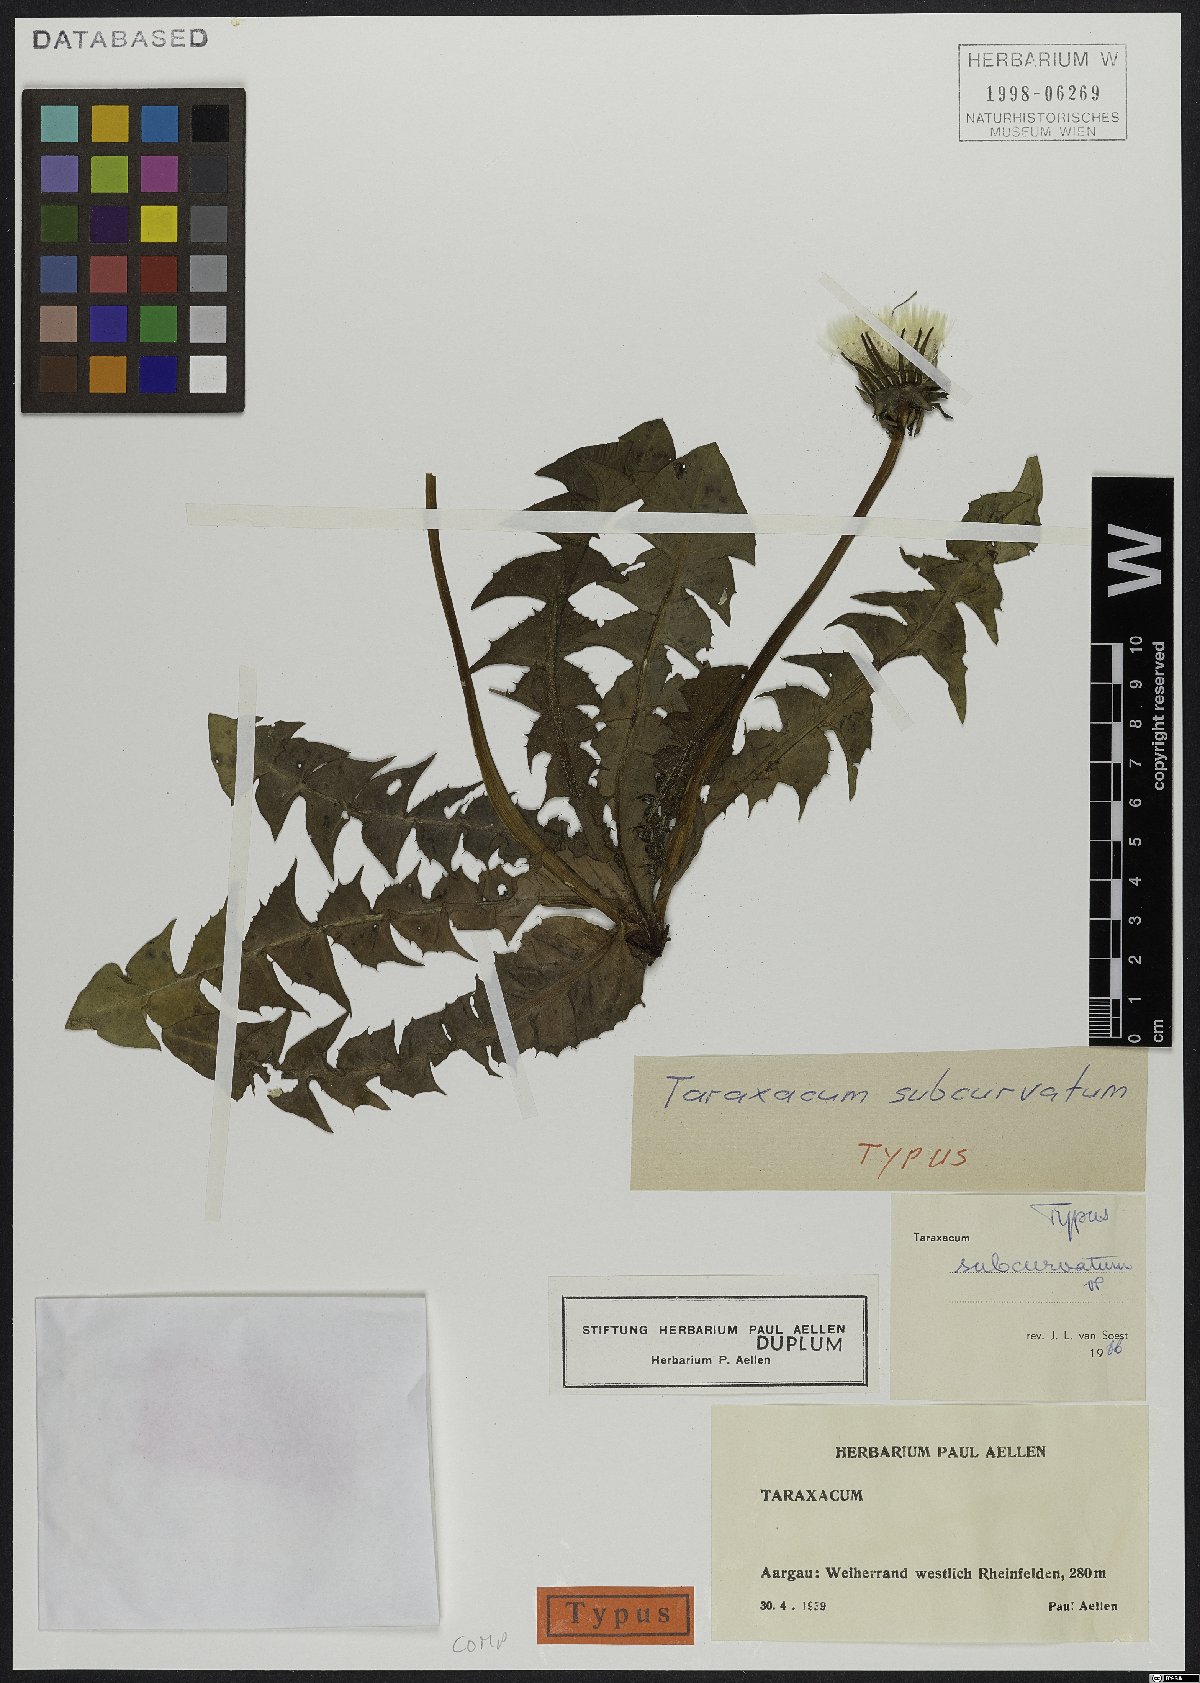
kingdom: Plantae
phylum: Tracheophyta
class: Magnoliopsida
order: Asterales
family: Asteraceae
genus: Taraxacum
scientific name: Taraxacum subcordatum
